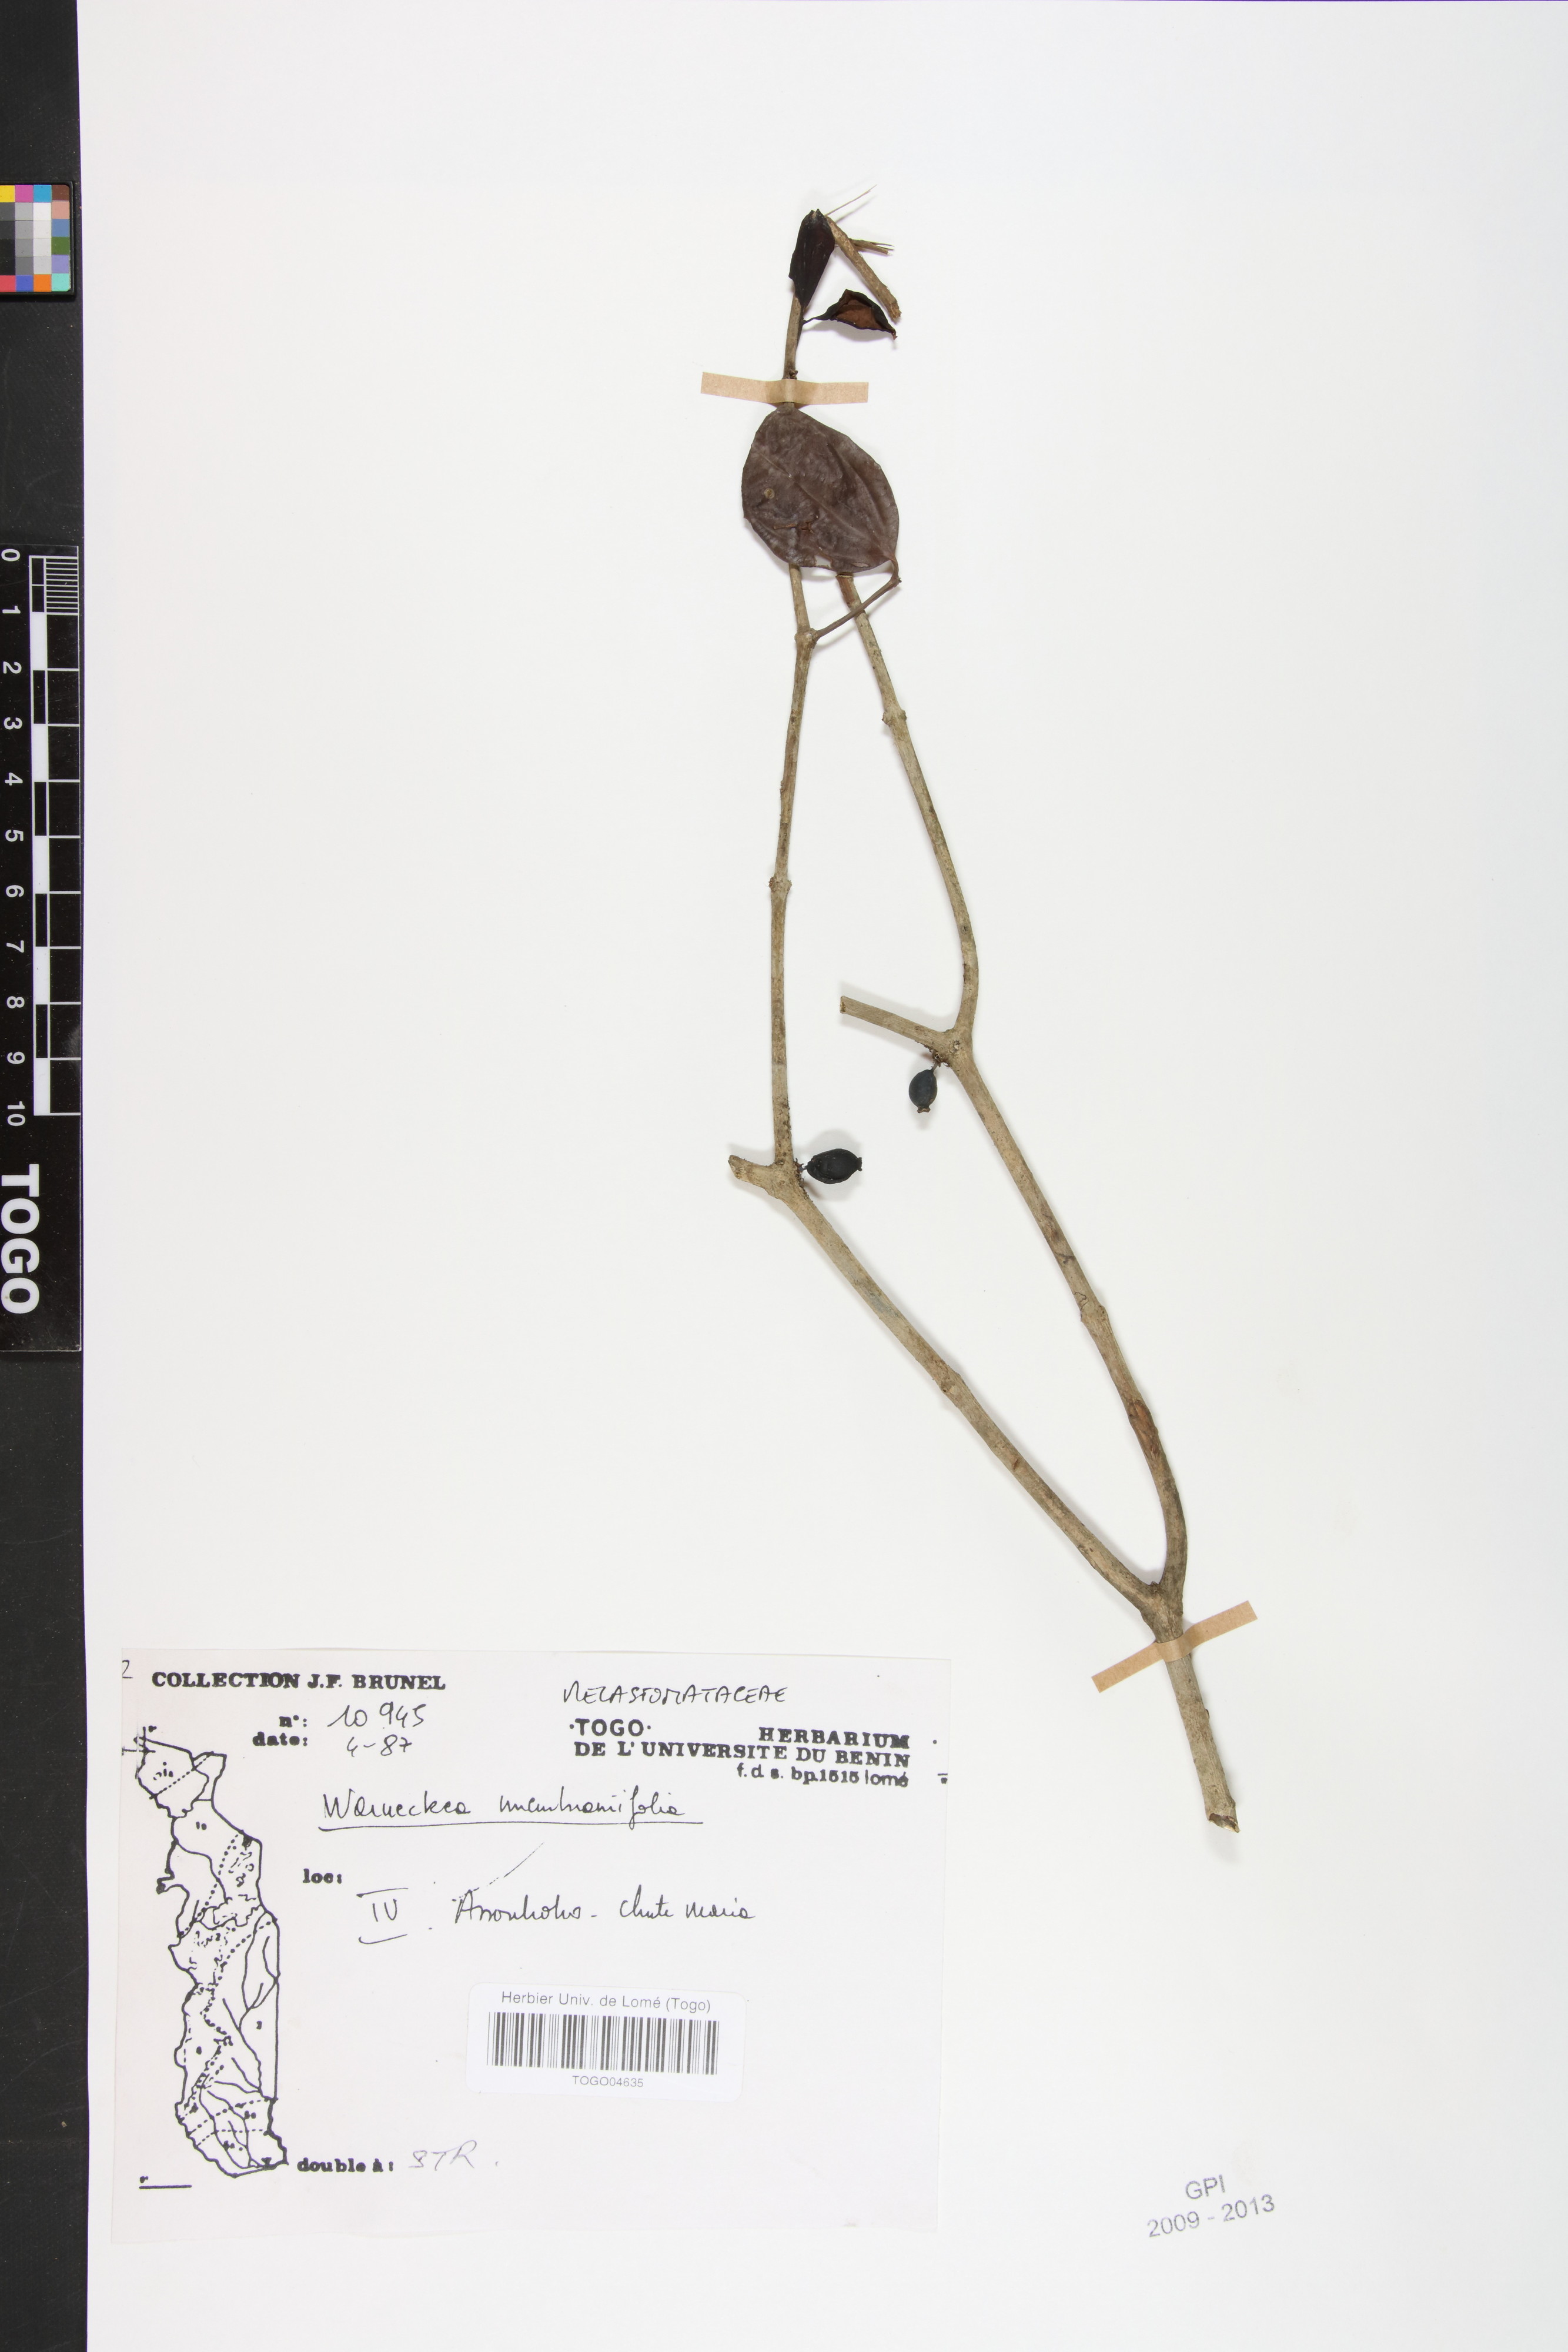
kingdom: Plantae
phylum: Tracheophyta
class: Magnoliopsida
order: Myrtales
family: Melastomataceae
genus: Warneckea
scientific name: Warneckea membranifolia
